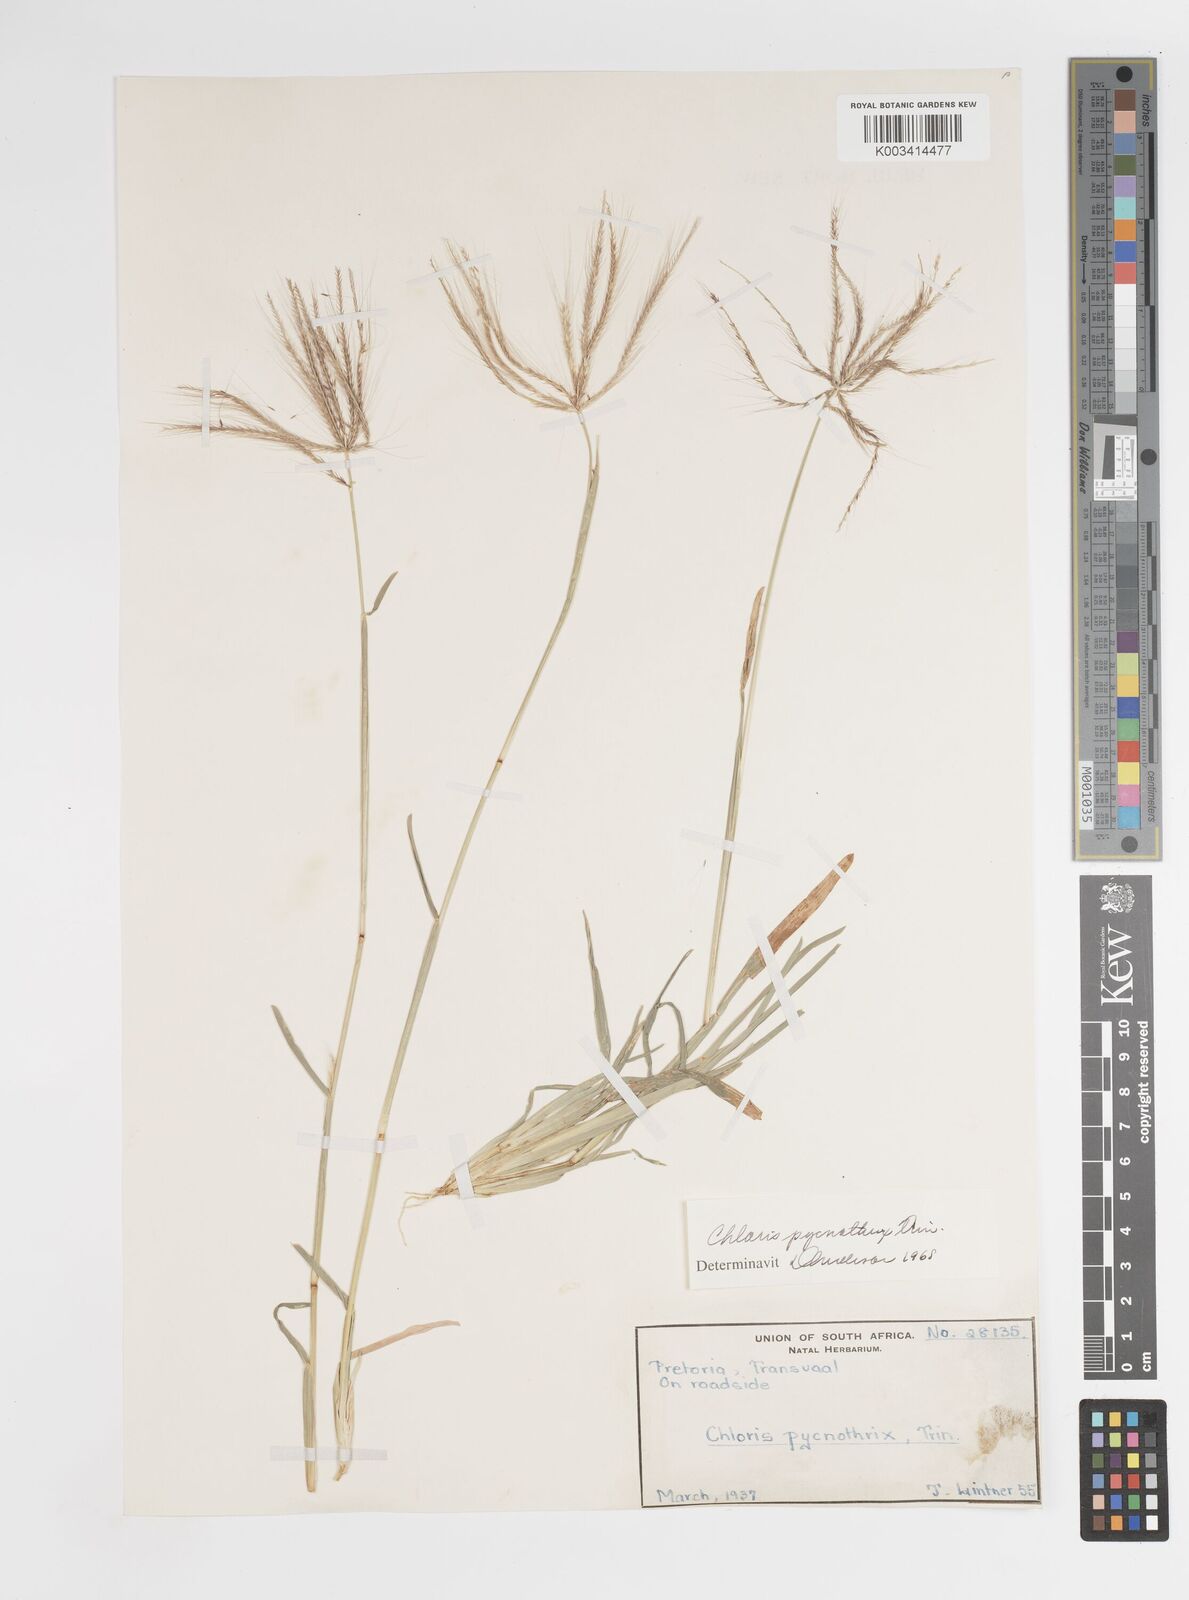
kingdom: Plantae
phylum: Tracheophyta
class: Liliopsida
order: Poales
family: Poaceae
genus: Chloris
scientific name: Chloris pycnothrix
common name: Spiderweb chloris
